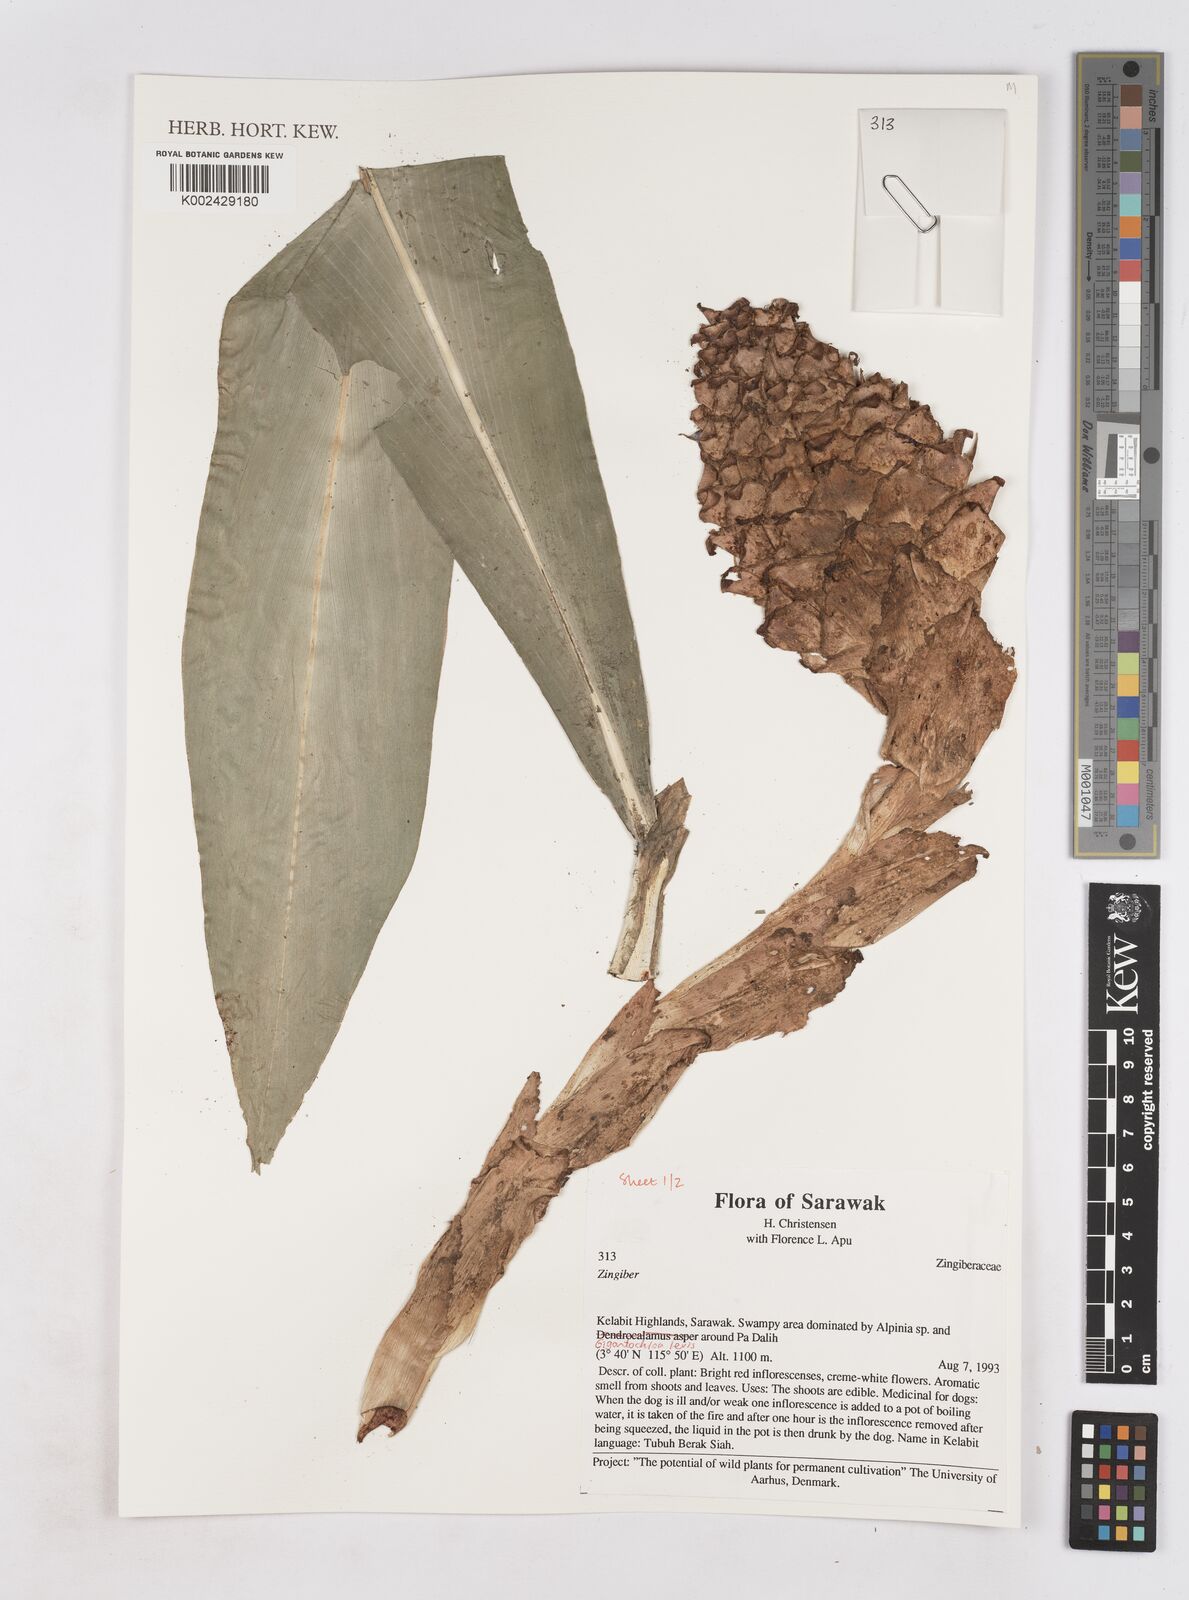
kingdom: Plantae
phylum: Tracheophyta
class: Liliopsida
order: Zingiberales
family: Zingiberaceae
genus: Zingiber
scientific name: Zingiber
